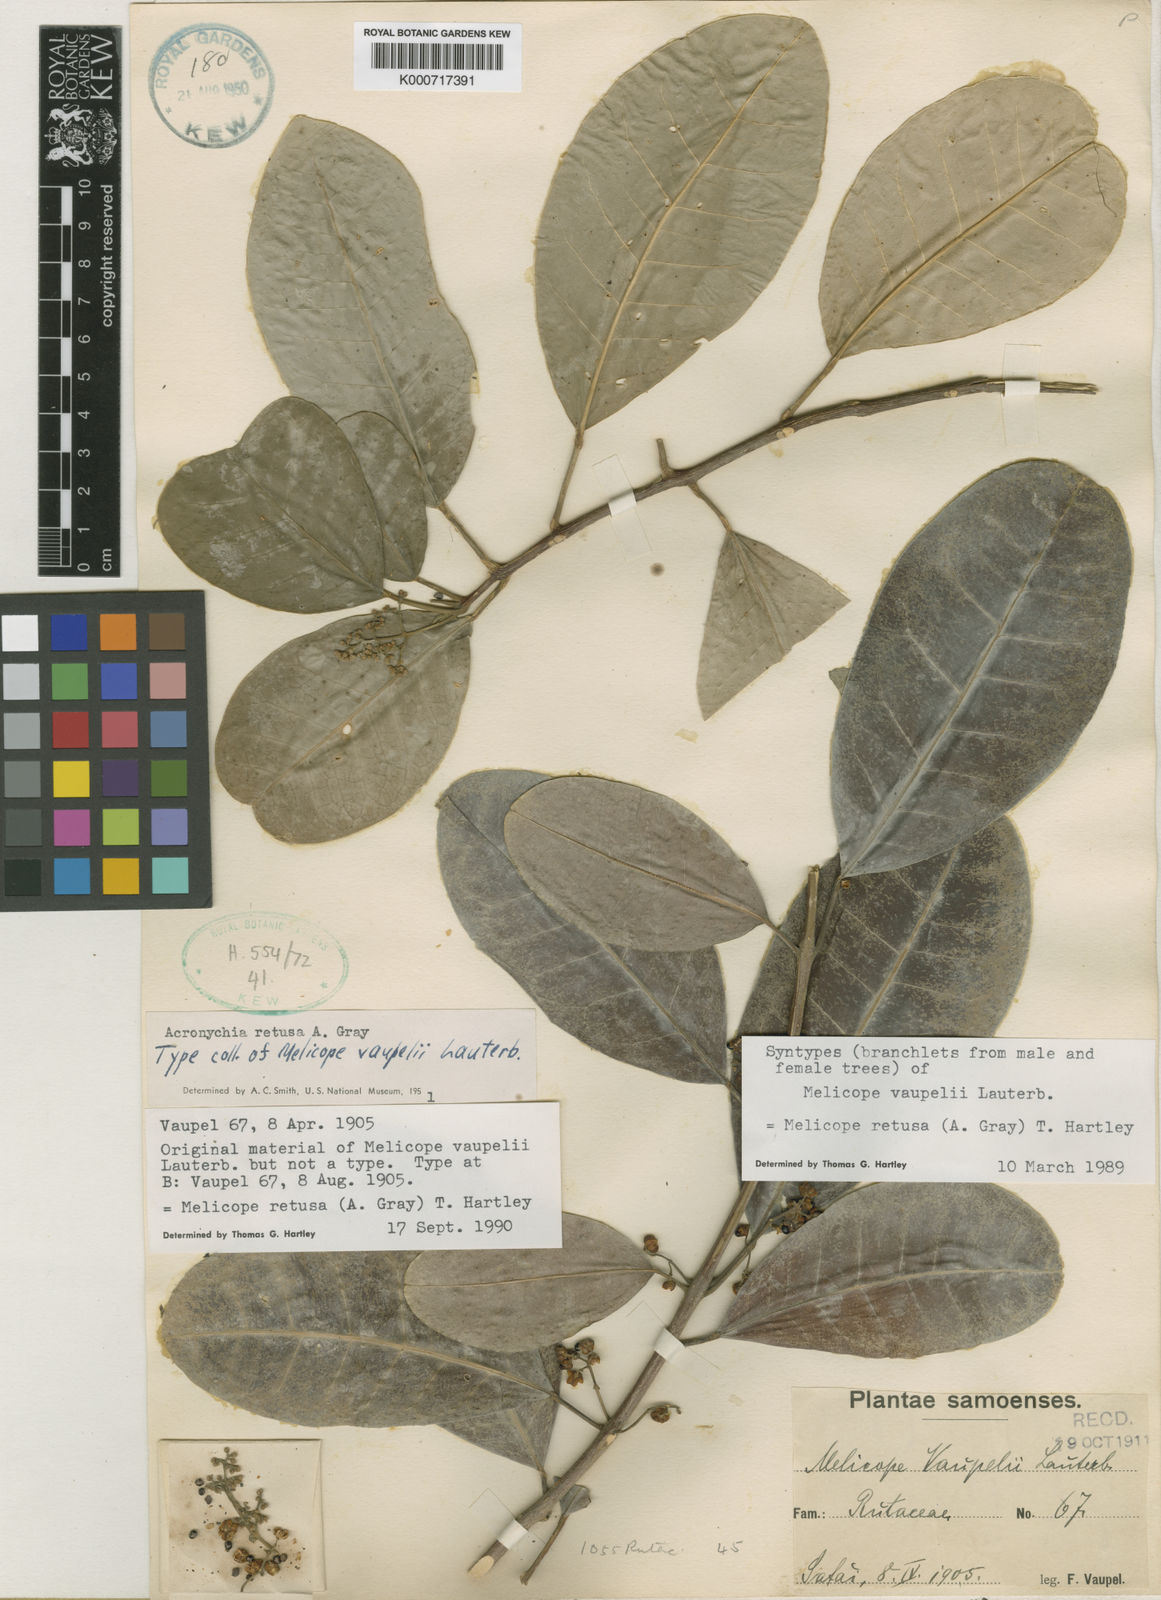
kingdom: Plantae
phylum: Tracheophyta
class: Magnoliopsida
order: Sapindales
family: Rutaceae
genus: Melicope
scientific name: Melicope retusa
